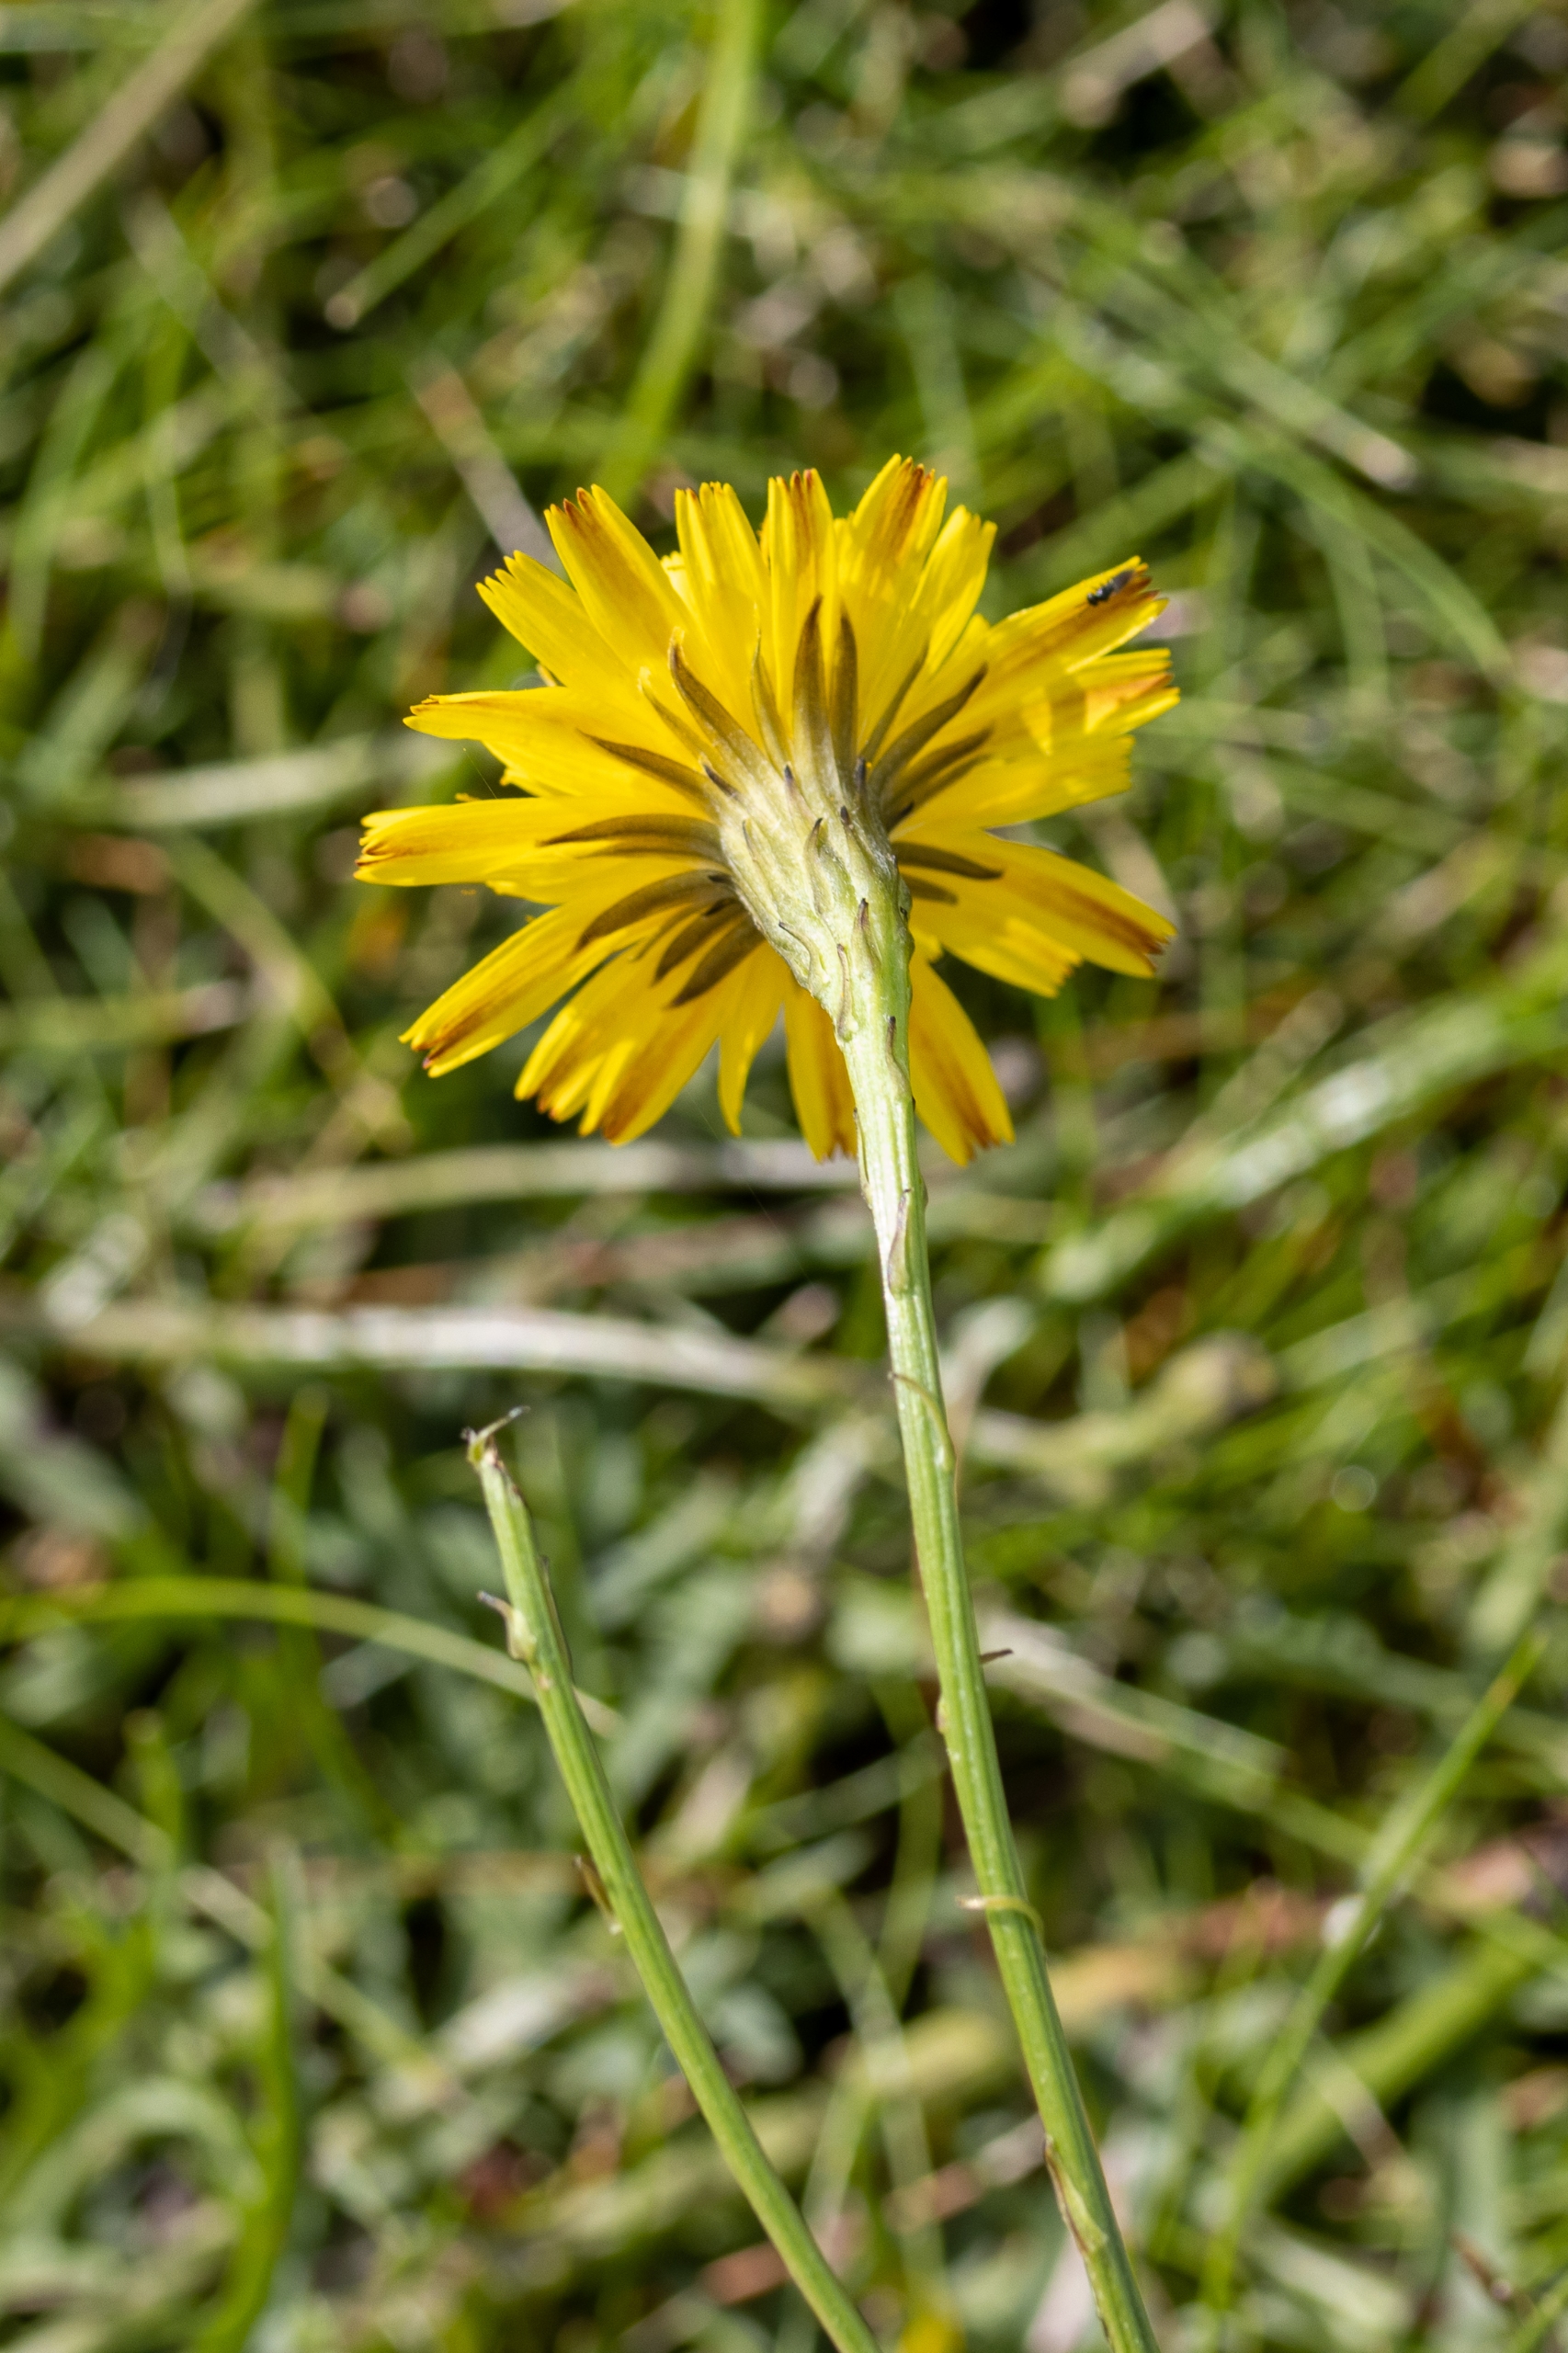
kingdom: Plantae
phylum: Tracheophyta
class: Magnoliopsida
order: Asterales
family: Asteraceae
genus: Scorzoneroides
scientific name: Scorzoneroides autumnalis
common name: Høst-borst
